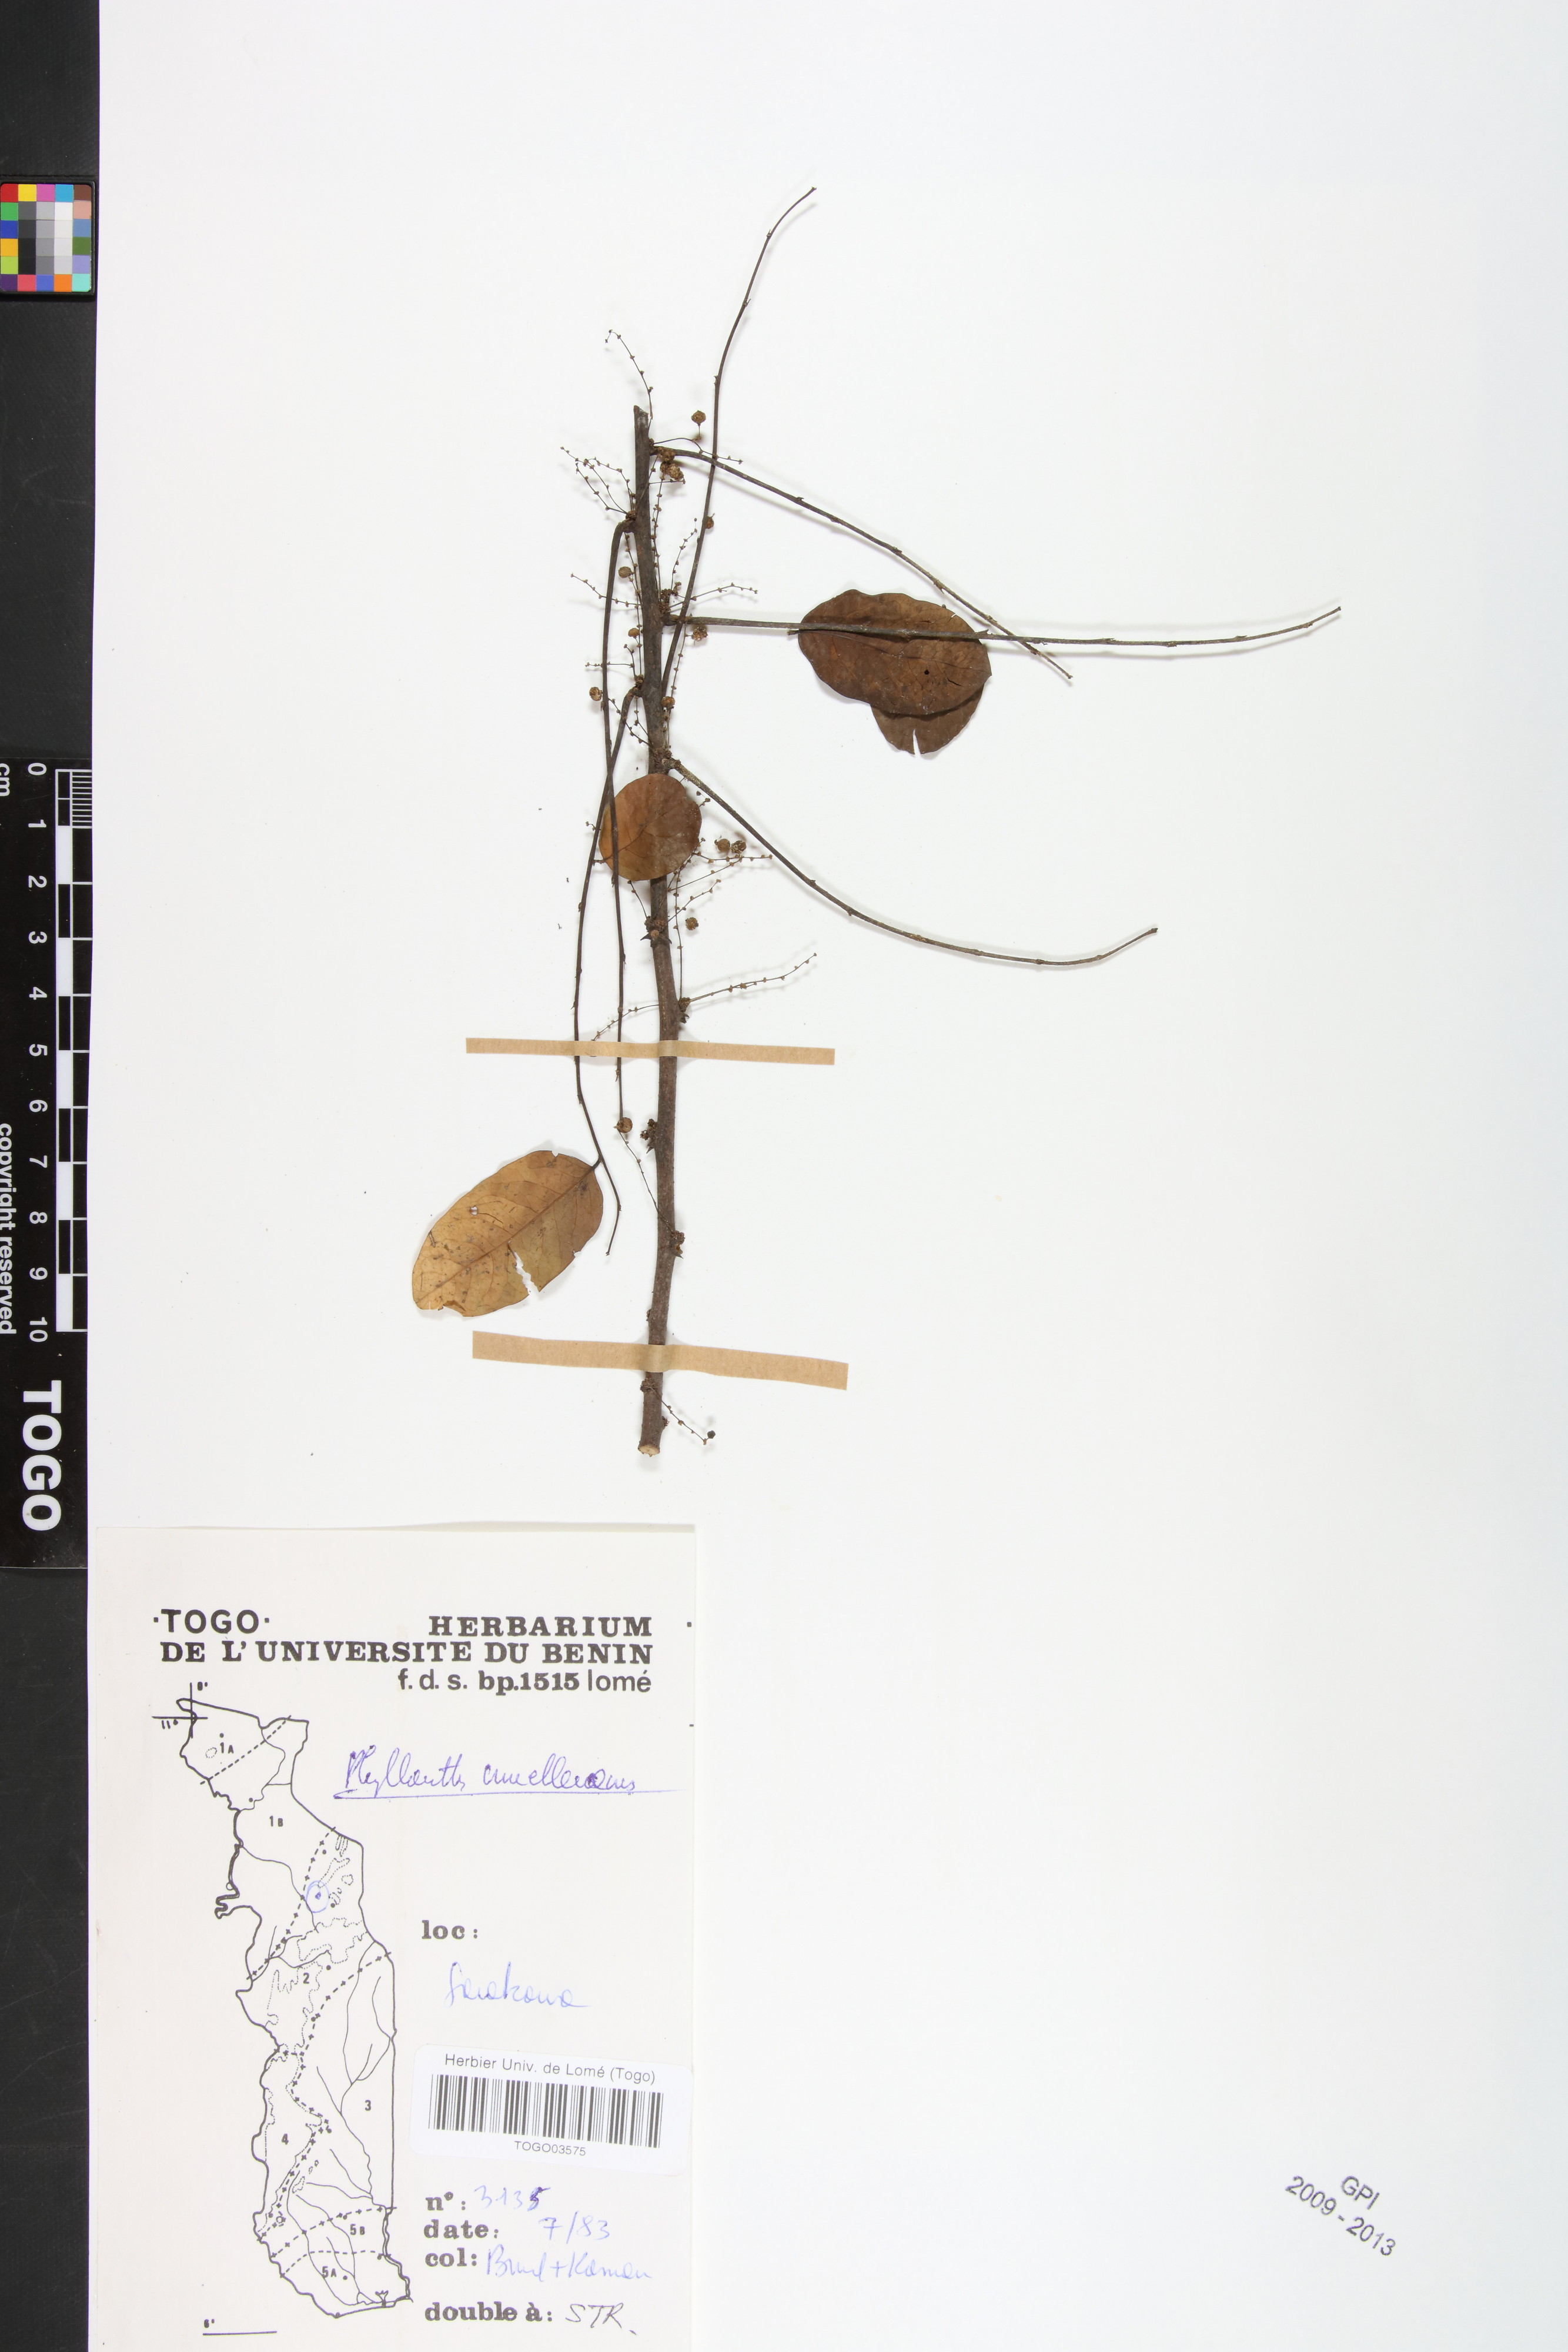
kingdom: Plantae
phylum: Tracheophyta
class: Magnoliopsida
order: Malpighiales
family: Phyllanthaceae
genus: Phyllanthus
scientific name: Phyllanthus muellerianus
